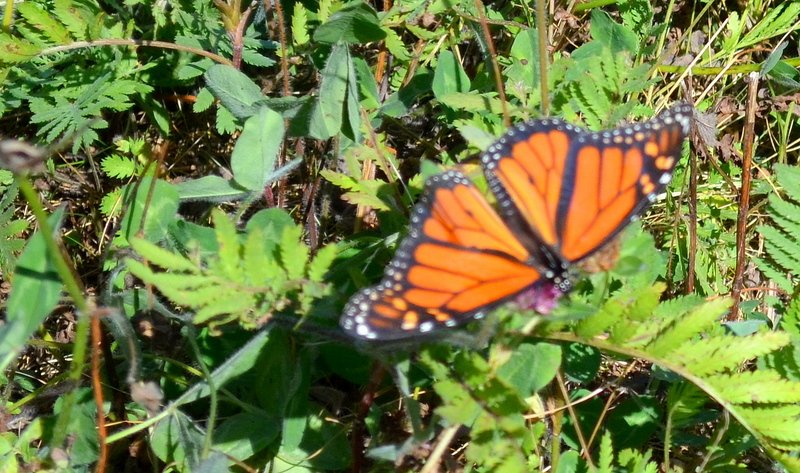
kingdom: Animalia
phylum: Arthropoda
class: Insecta
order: Lepidoptera
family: Nymphalidae
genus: Danaus
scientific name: Danaus plexippus
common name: Monarch
